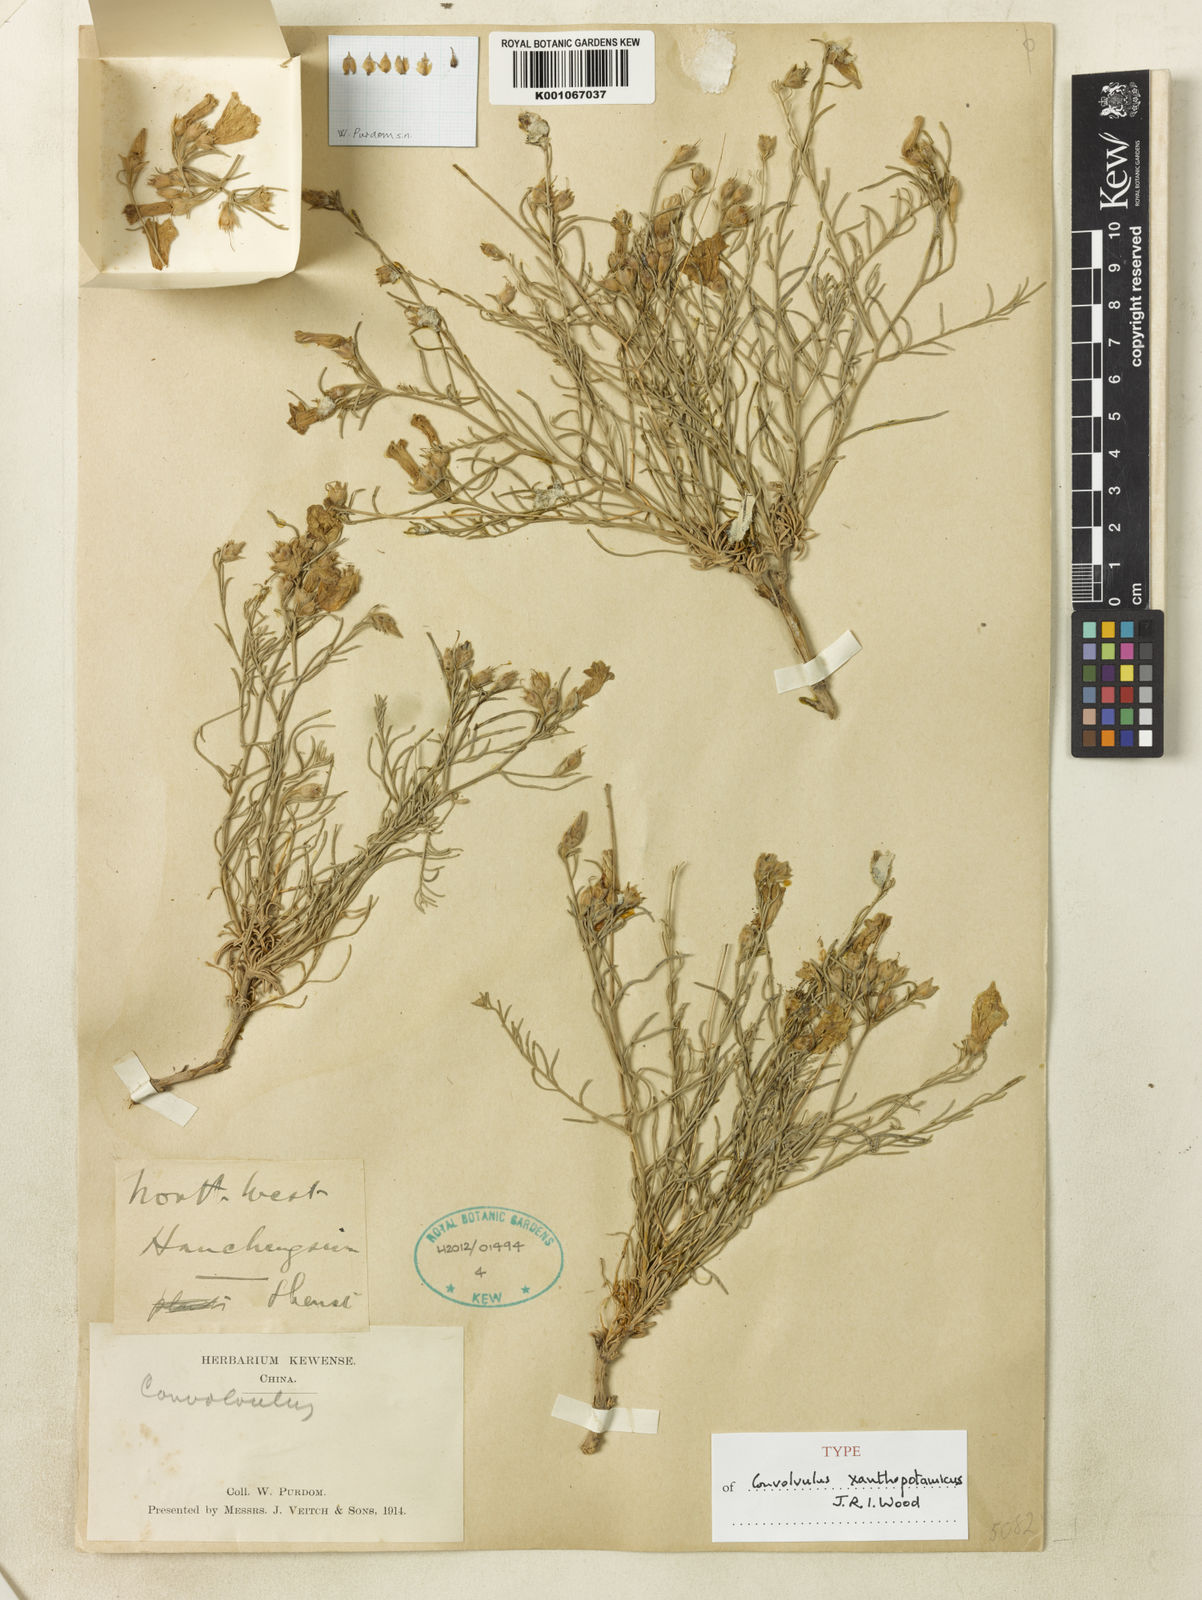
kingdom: Plantae
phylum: Tracheophyta
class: Magnoliopsida
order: Solanales
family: Convolvulaceae
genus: Convolvulus
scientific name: Convolvulus xanthopotamicus
